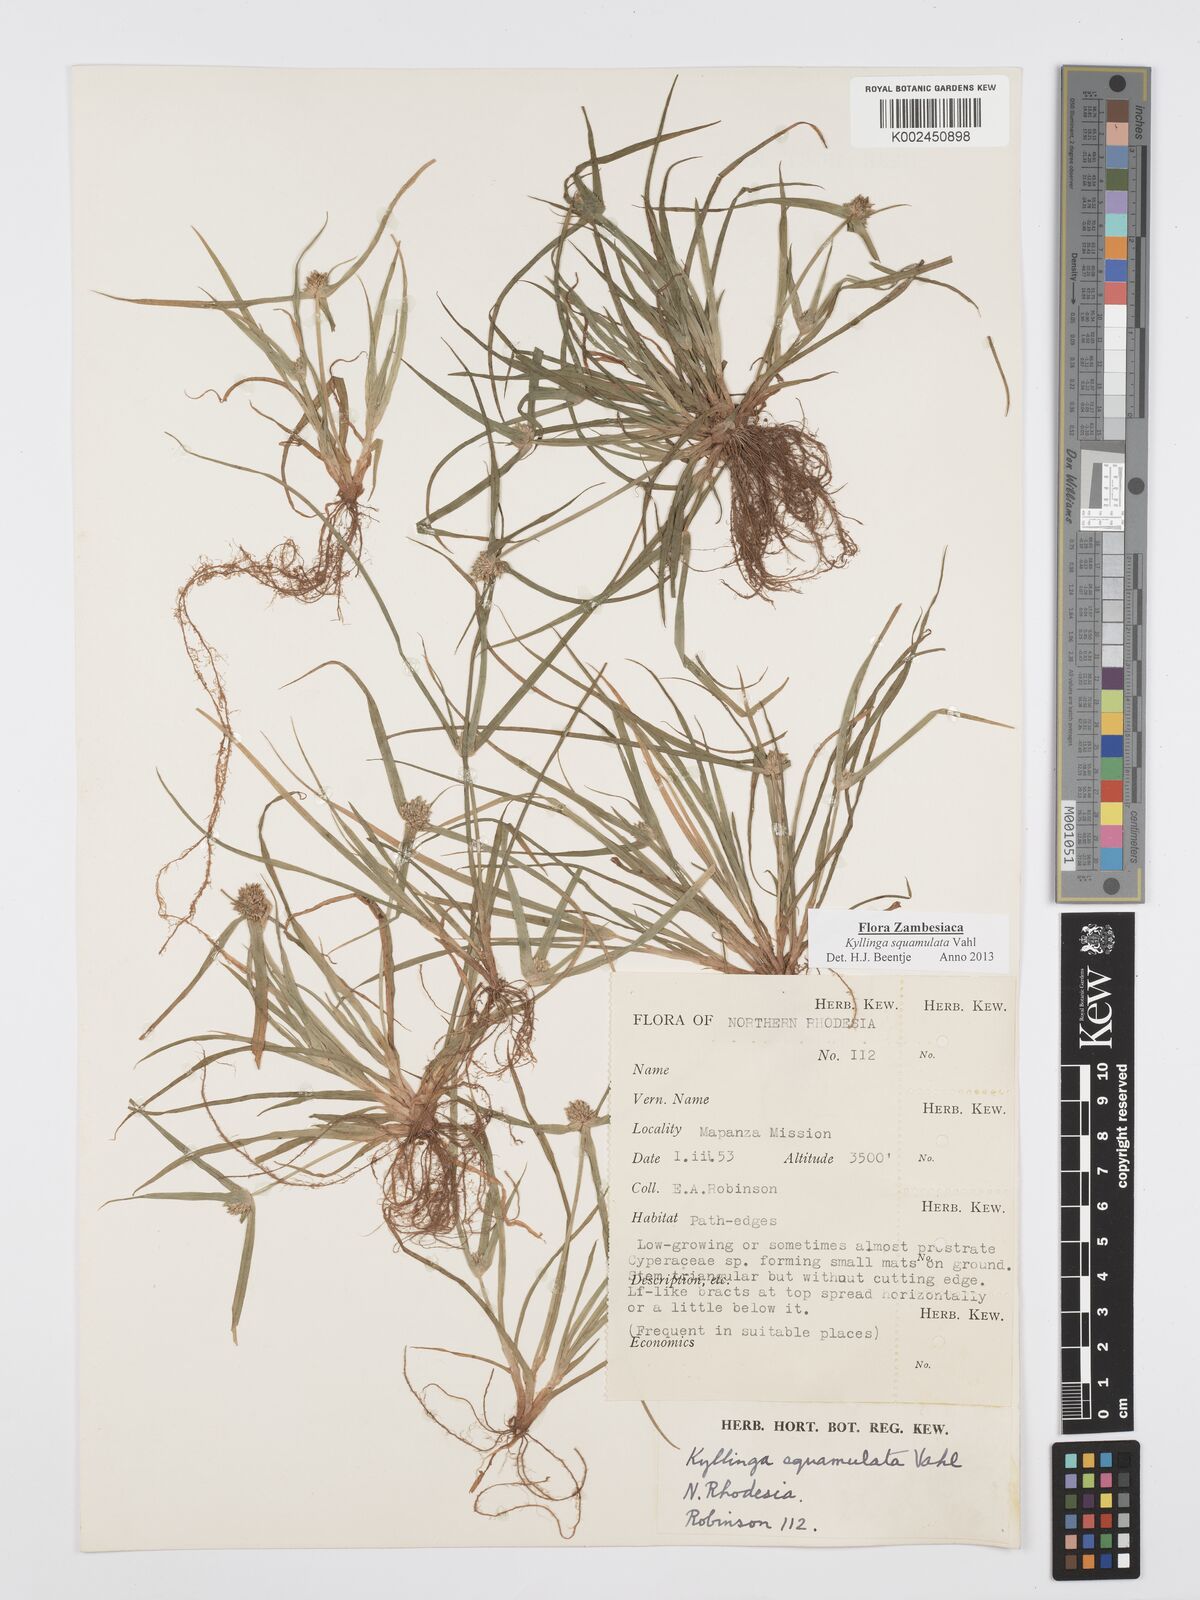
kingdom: Plantae
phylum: Tracheophyta
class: Liliopsida
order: Poales
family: Cyperaceae
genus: Cyperus
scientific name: Cyperus distans
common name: Slender cyperus
